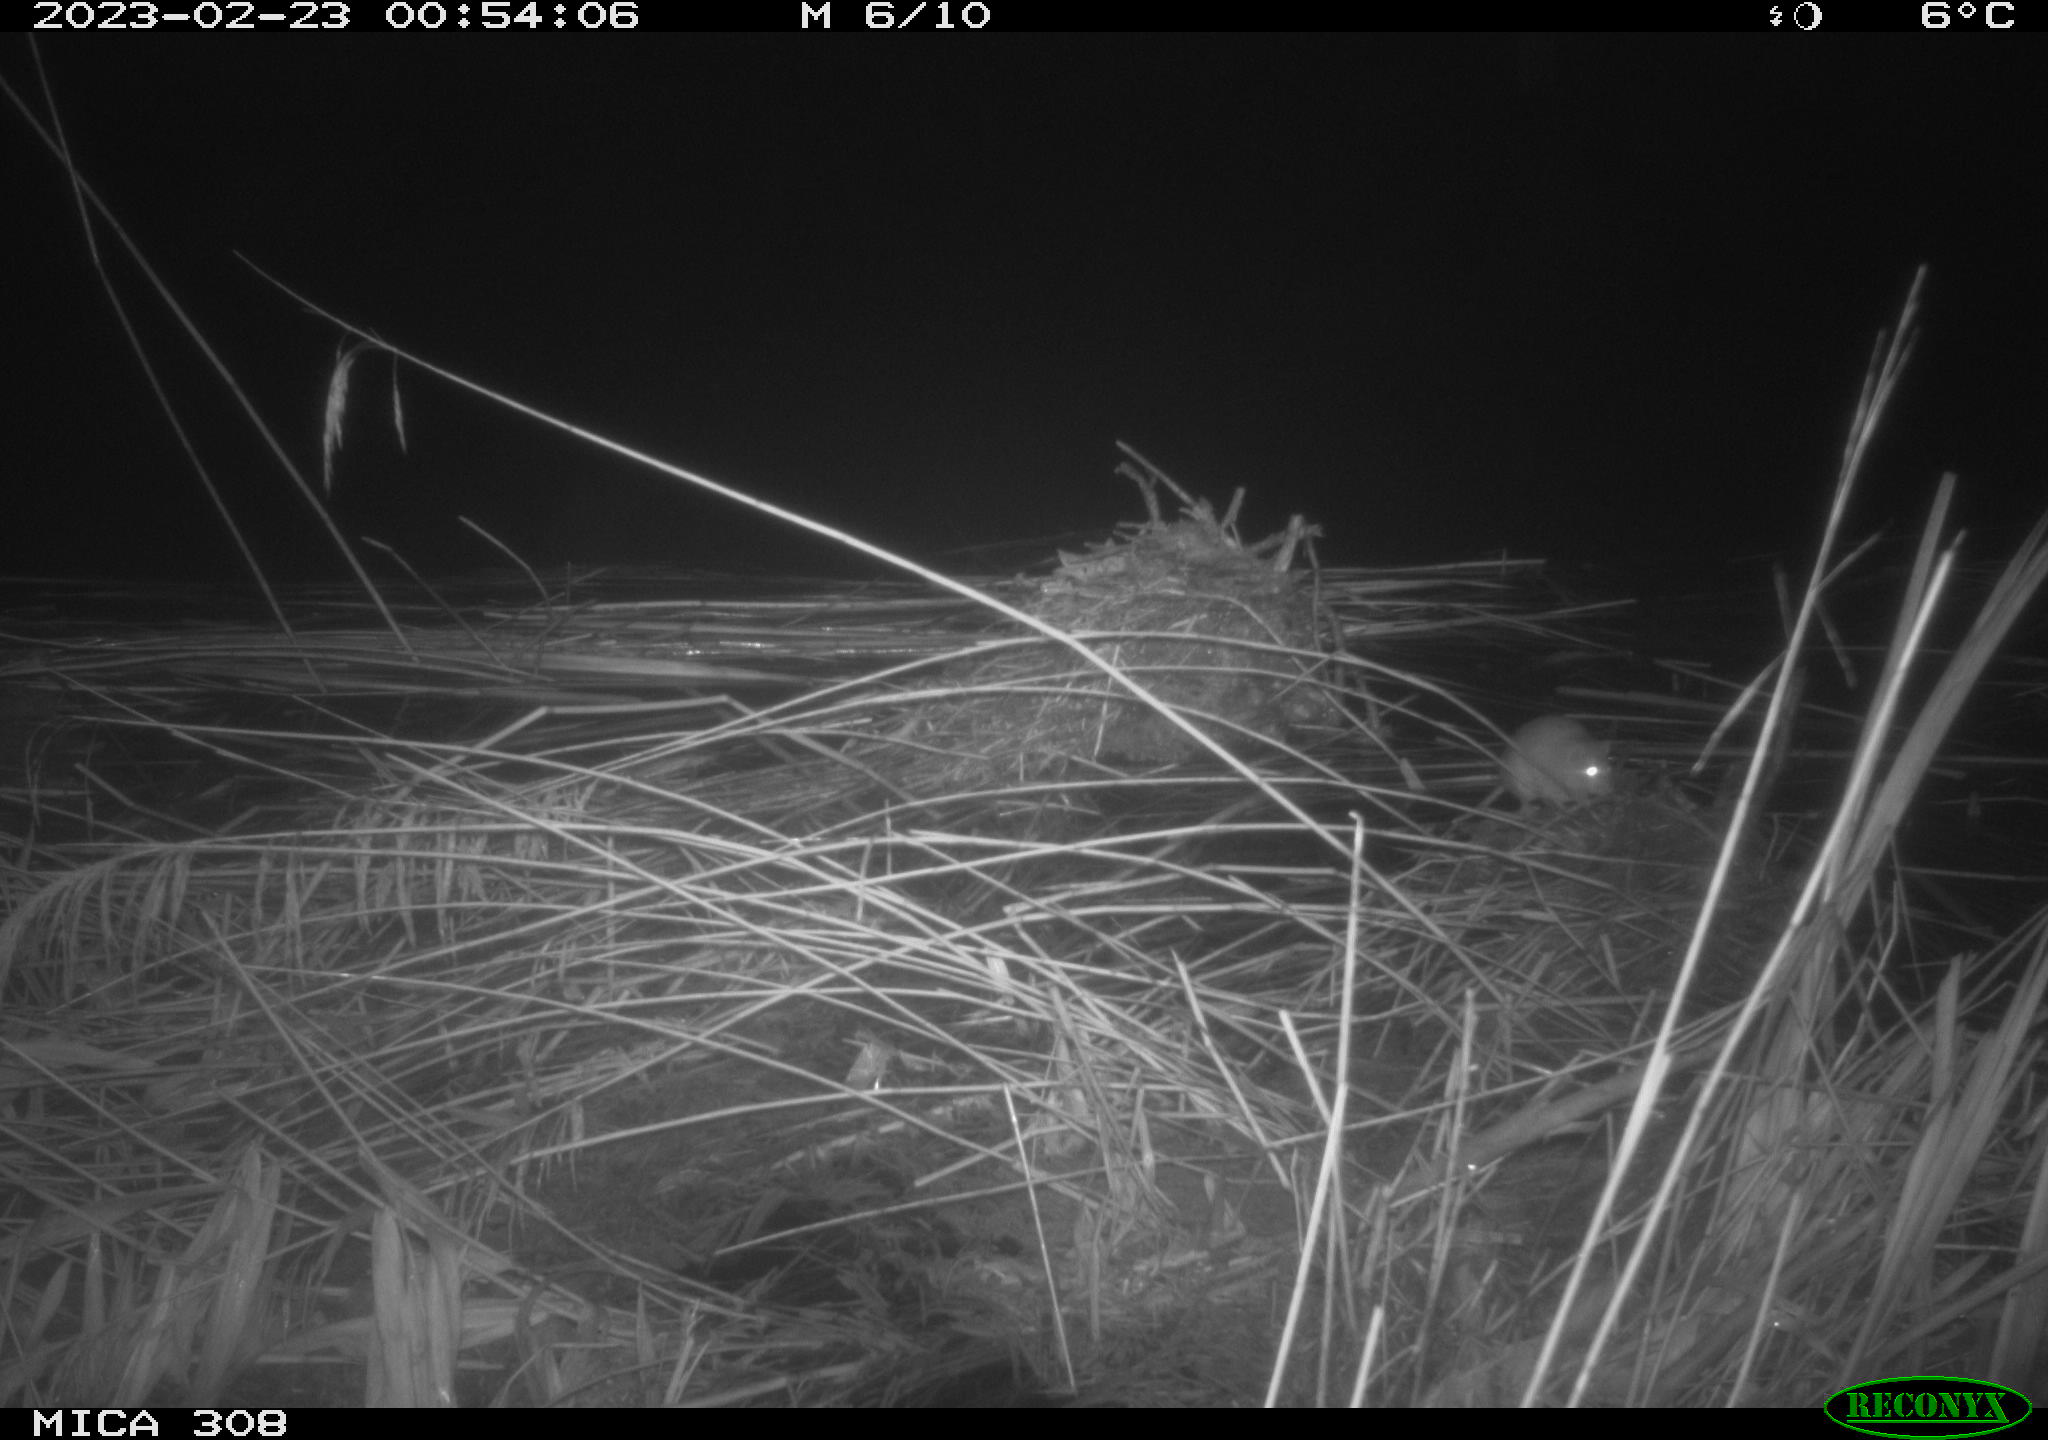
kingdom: Animalia
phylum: Chordata
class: Mammalia
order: Rodentia
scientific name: Rodentia
